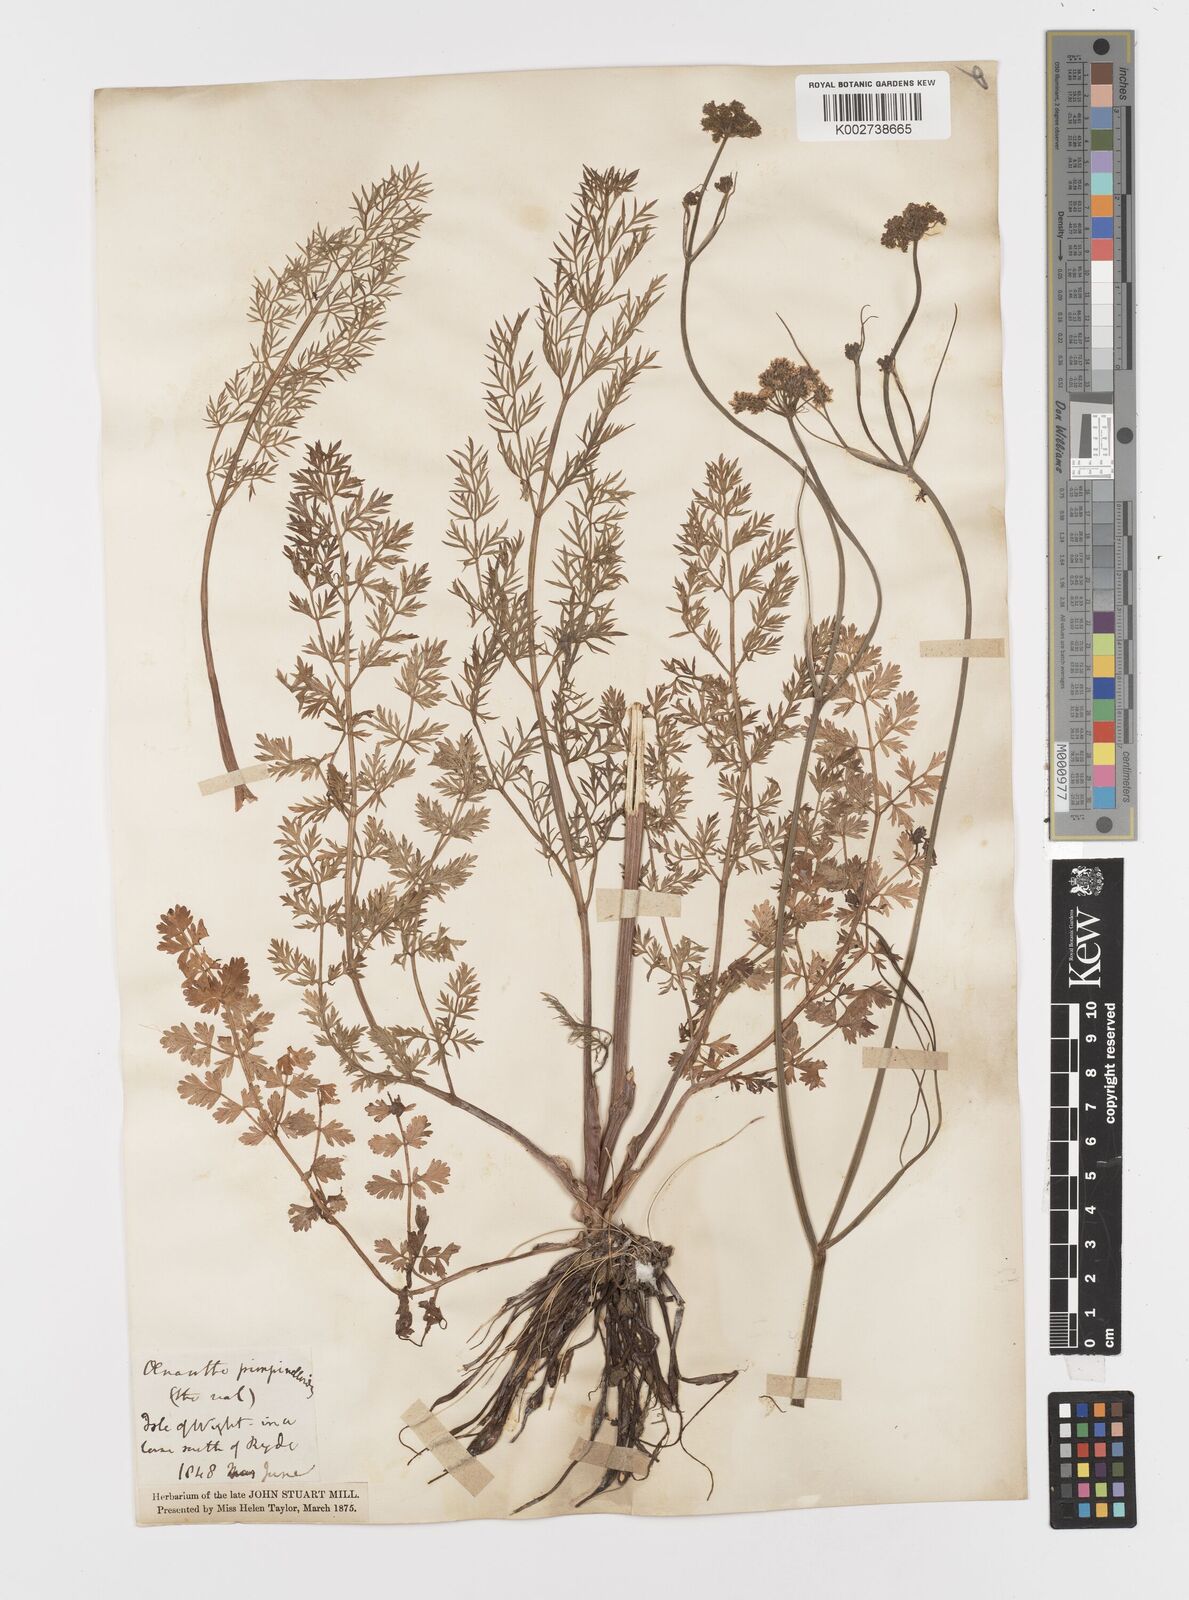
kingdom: Plantae
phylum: Tracheophyta
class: Magnoliopsida
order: Apiales
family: Apiaceae
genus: Oenanthe
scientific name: Oenanthe pimpinelloides
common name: Corky-fruited water-dropwort
